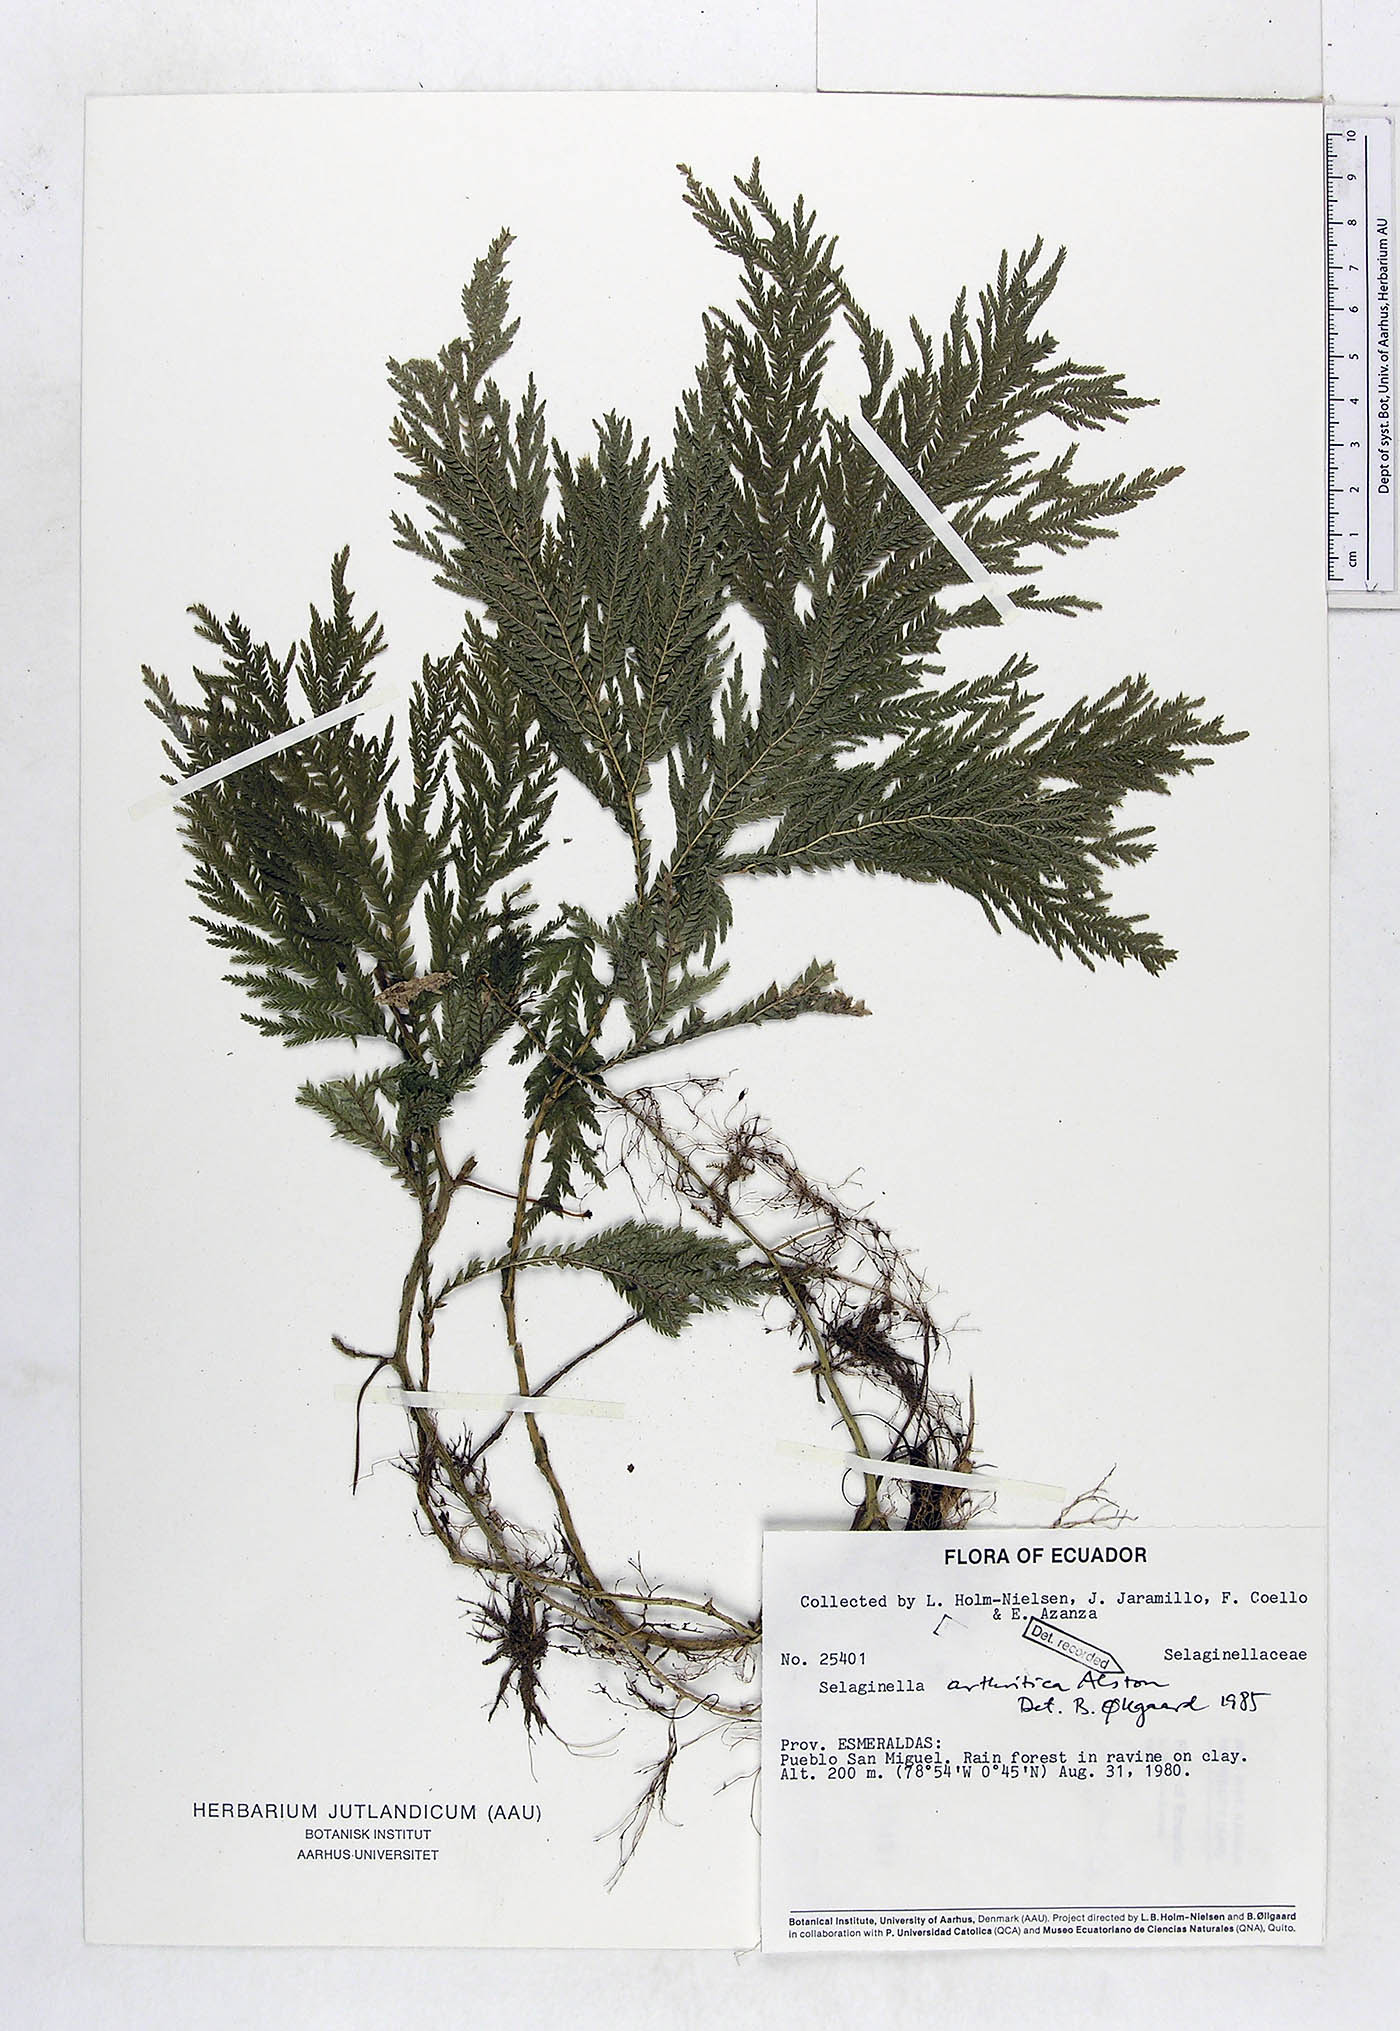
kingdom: Plantae
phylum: Tracheophyta
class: Lycopodiopsida
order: Selaginellales
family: Selaginellaceae
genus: Selaginella
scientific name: Selaginella arthritica
